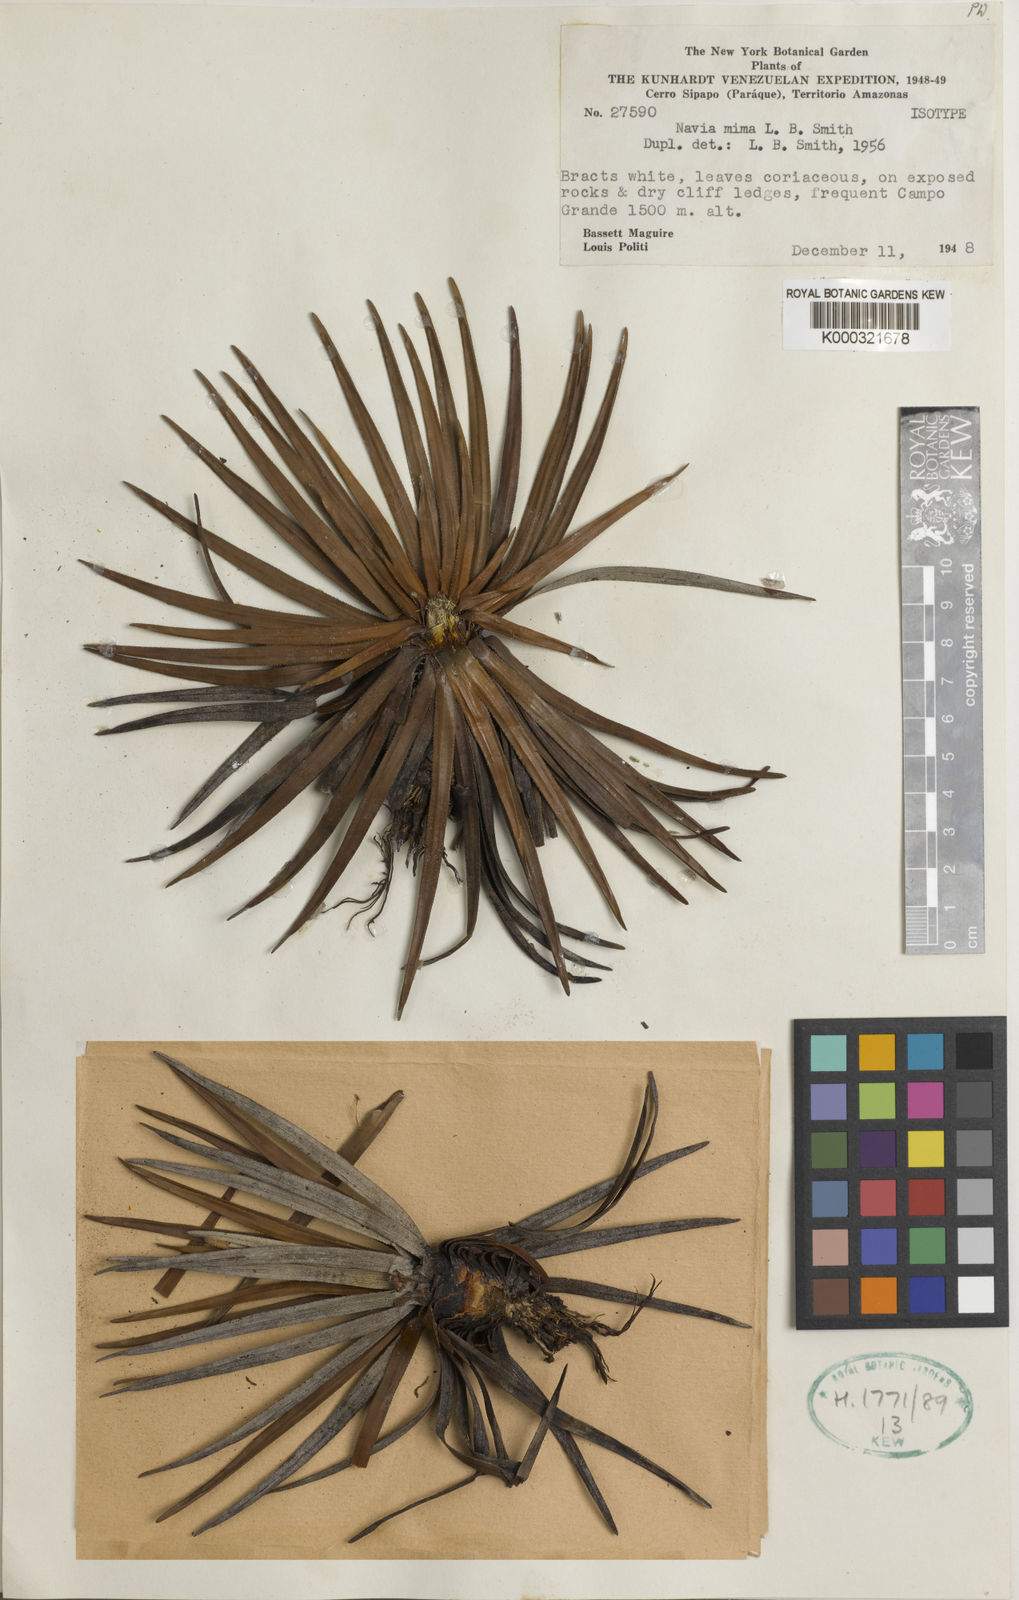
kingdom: Plantae
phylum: Tracheophyta
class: Liliopsida
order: Poales
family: Bromeliaceae
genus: Navia
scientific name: Navia mima
